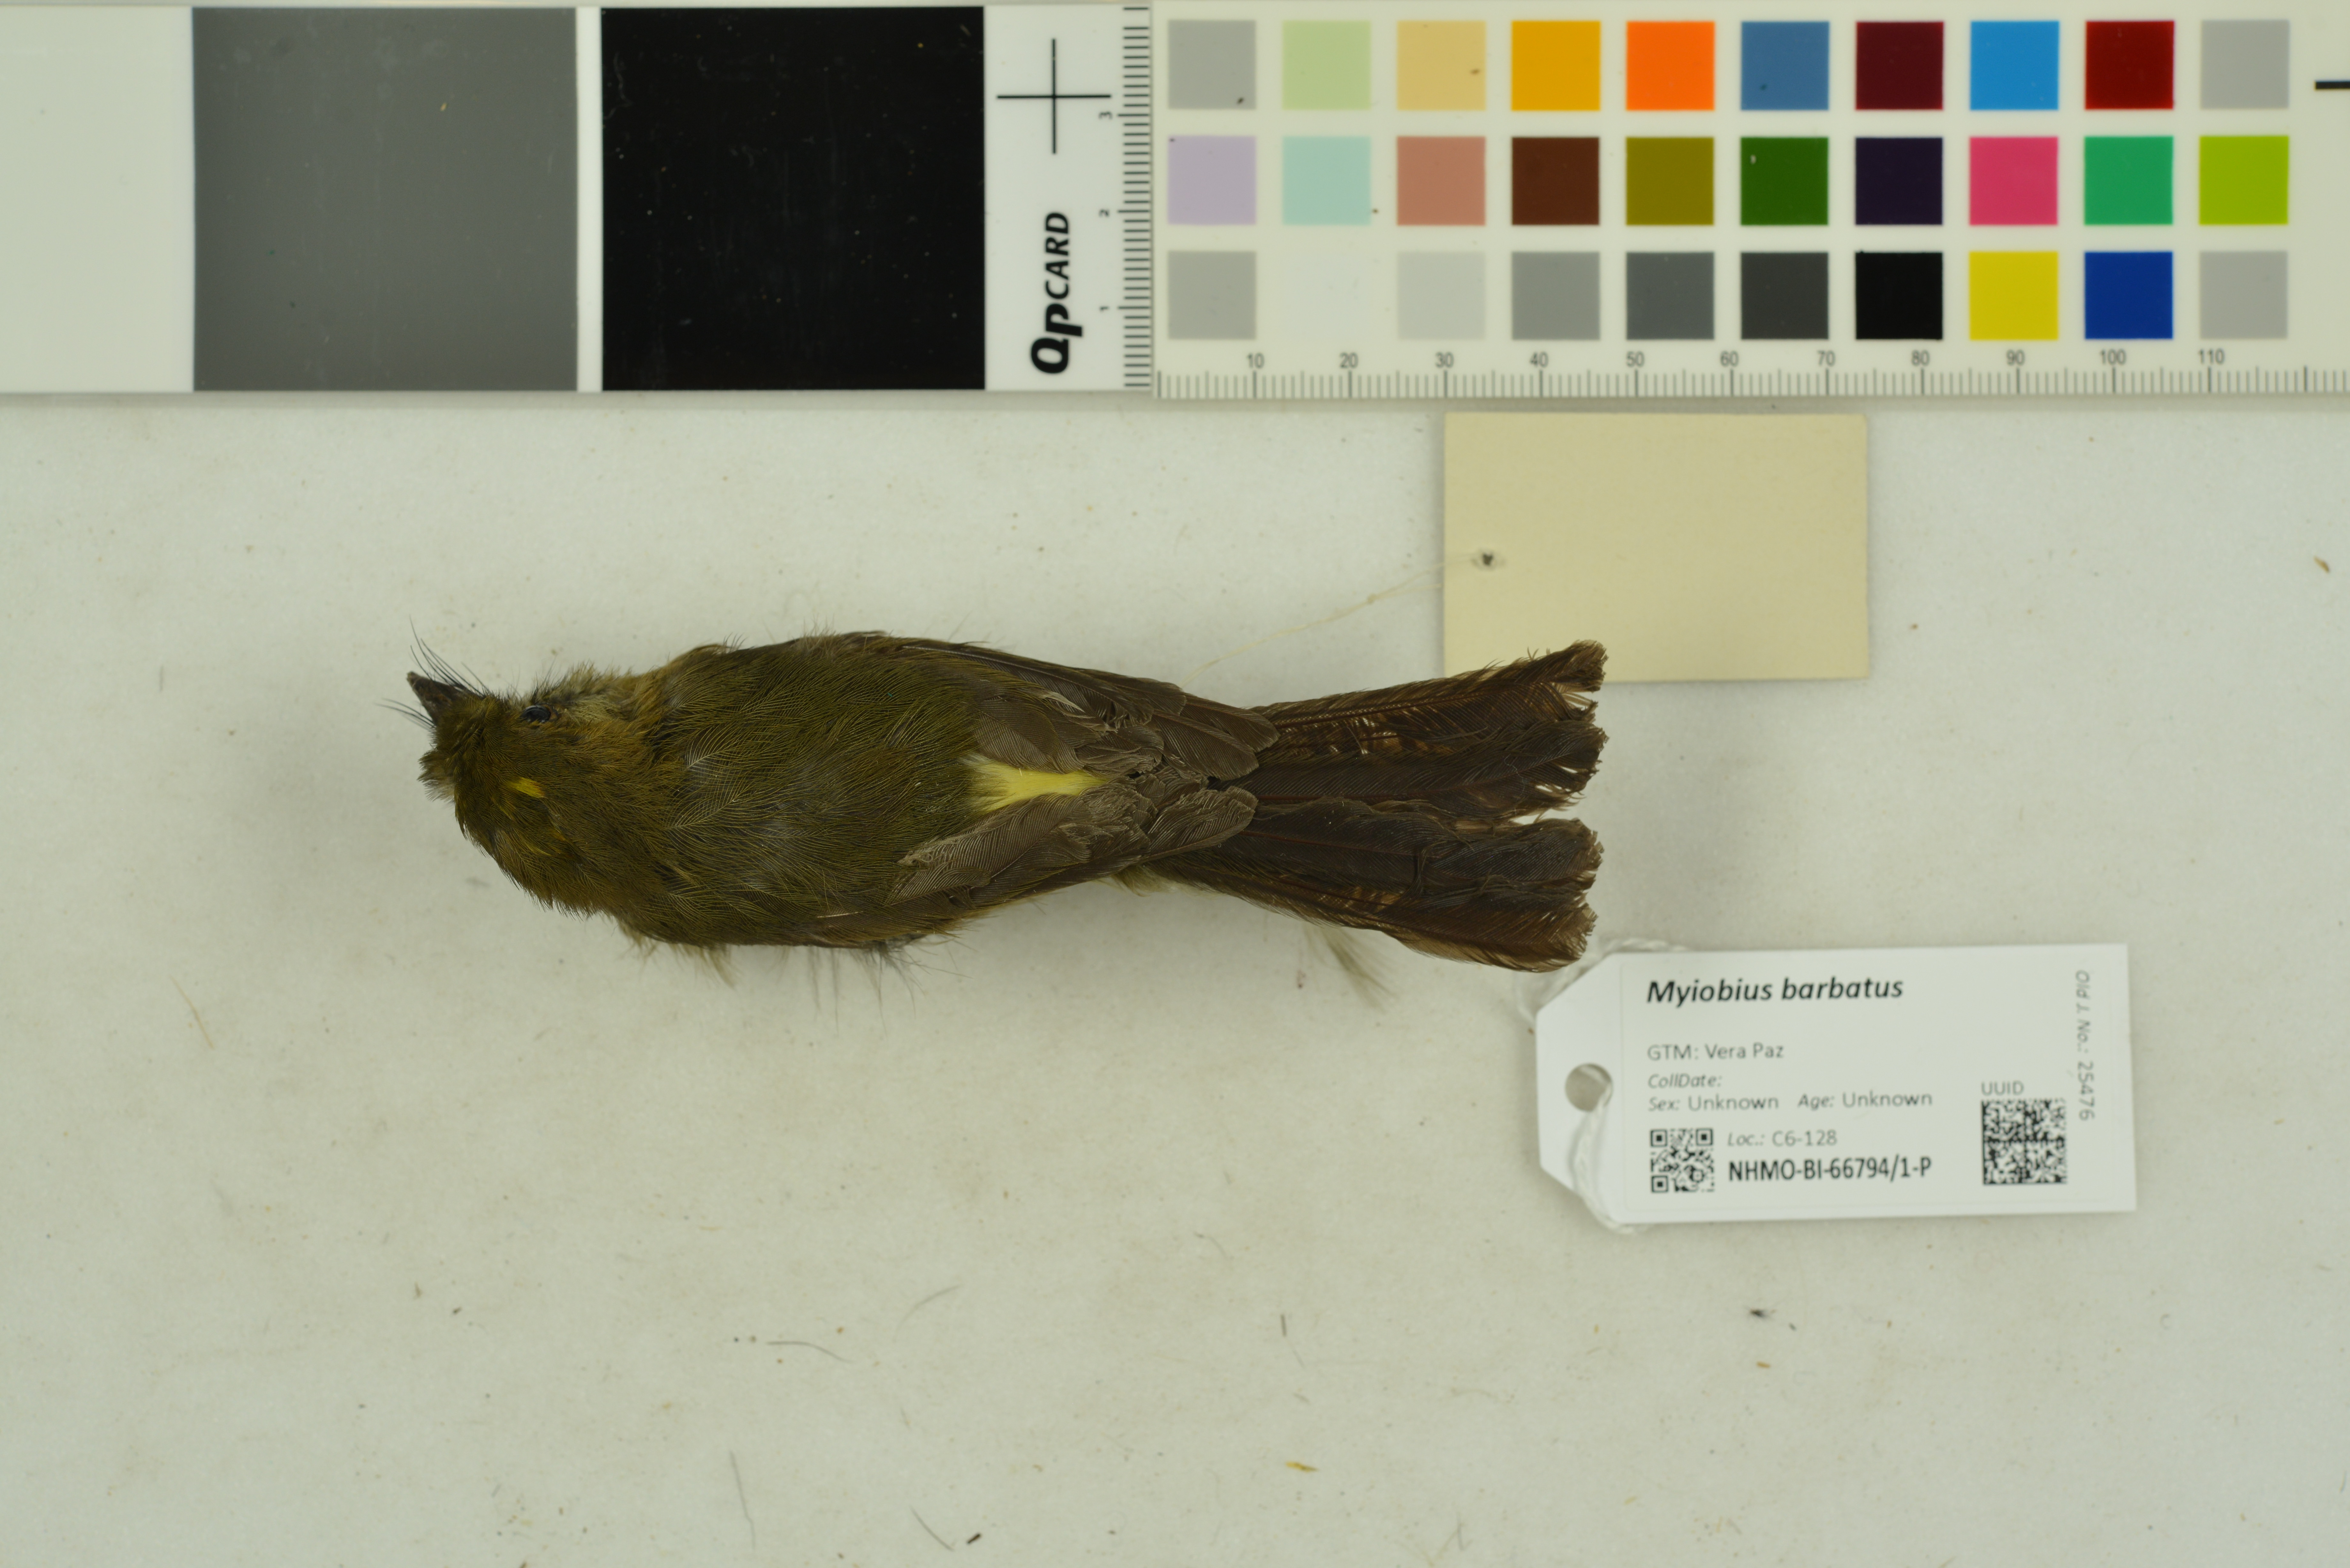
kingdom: Animalia
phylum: Chordata
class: Aves
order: Passeriformes
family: Tyrannidae
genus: Myiobius
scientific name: Myiobius barbatus
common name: Whiskered myiobius
